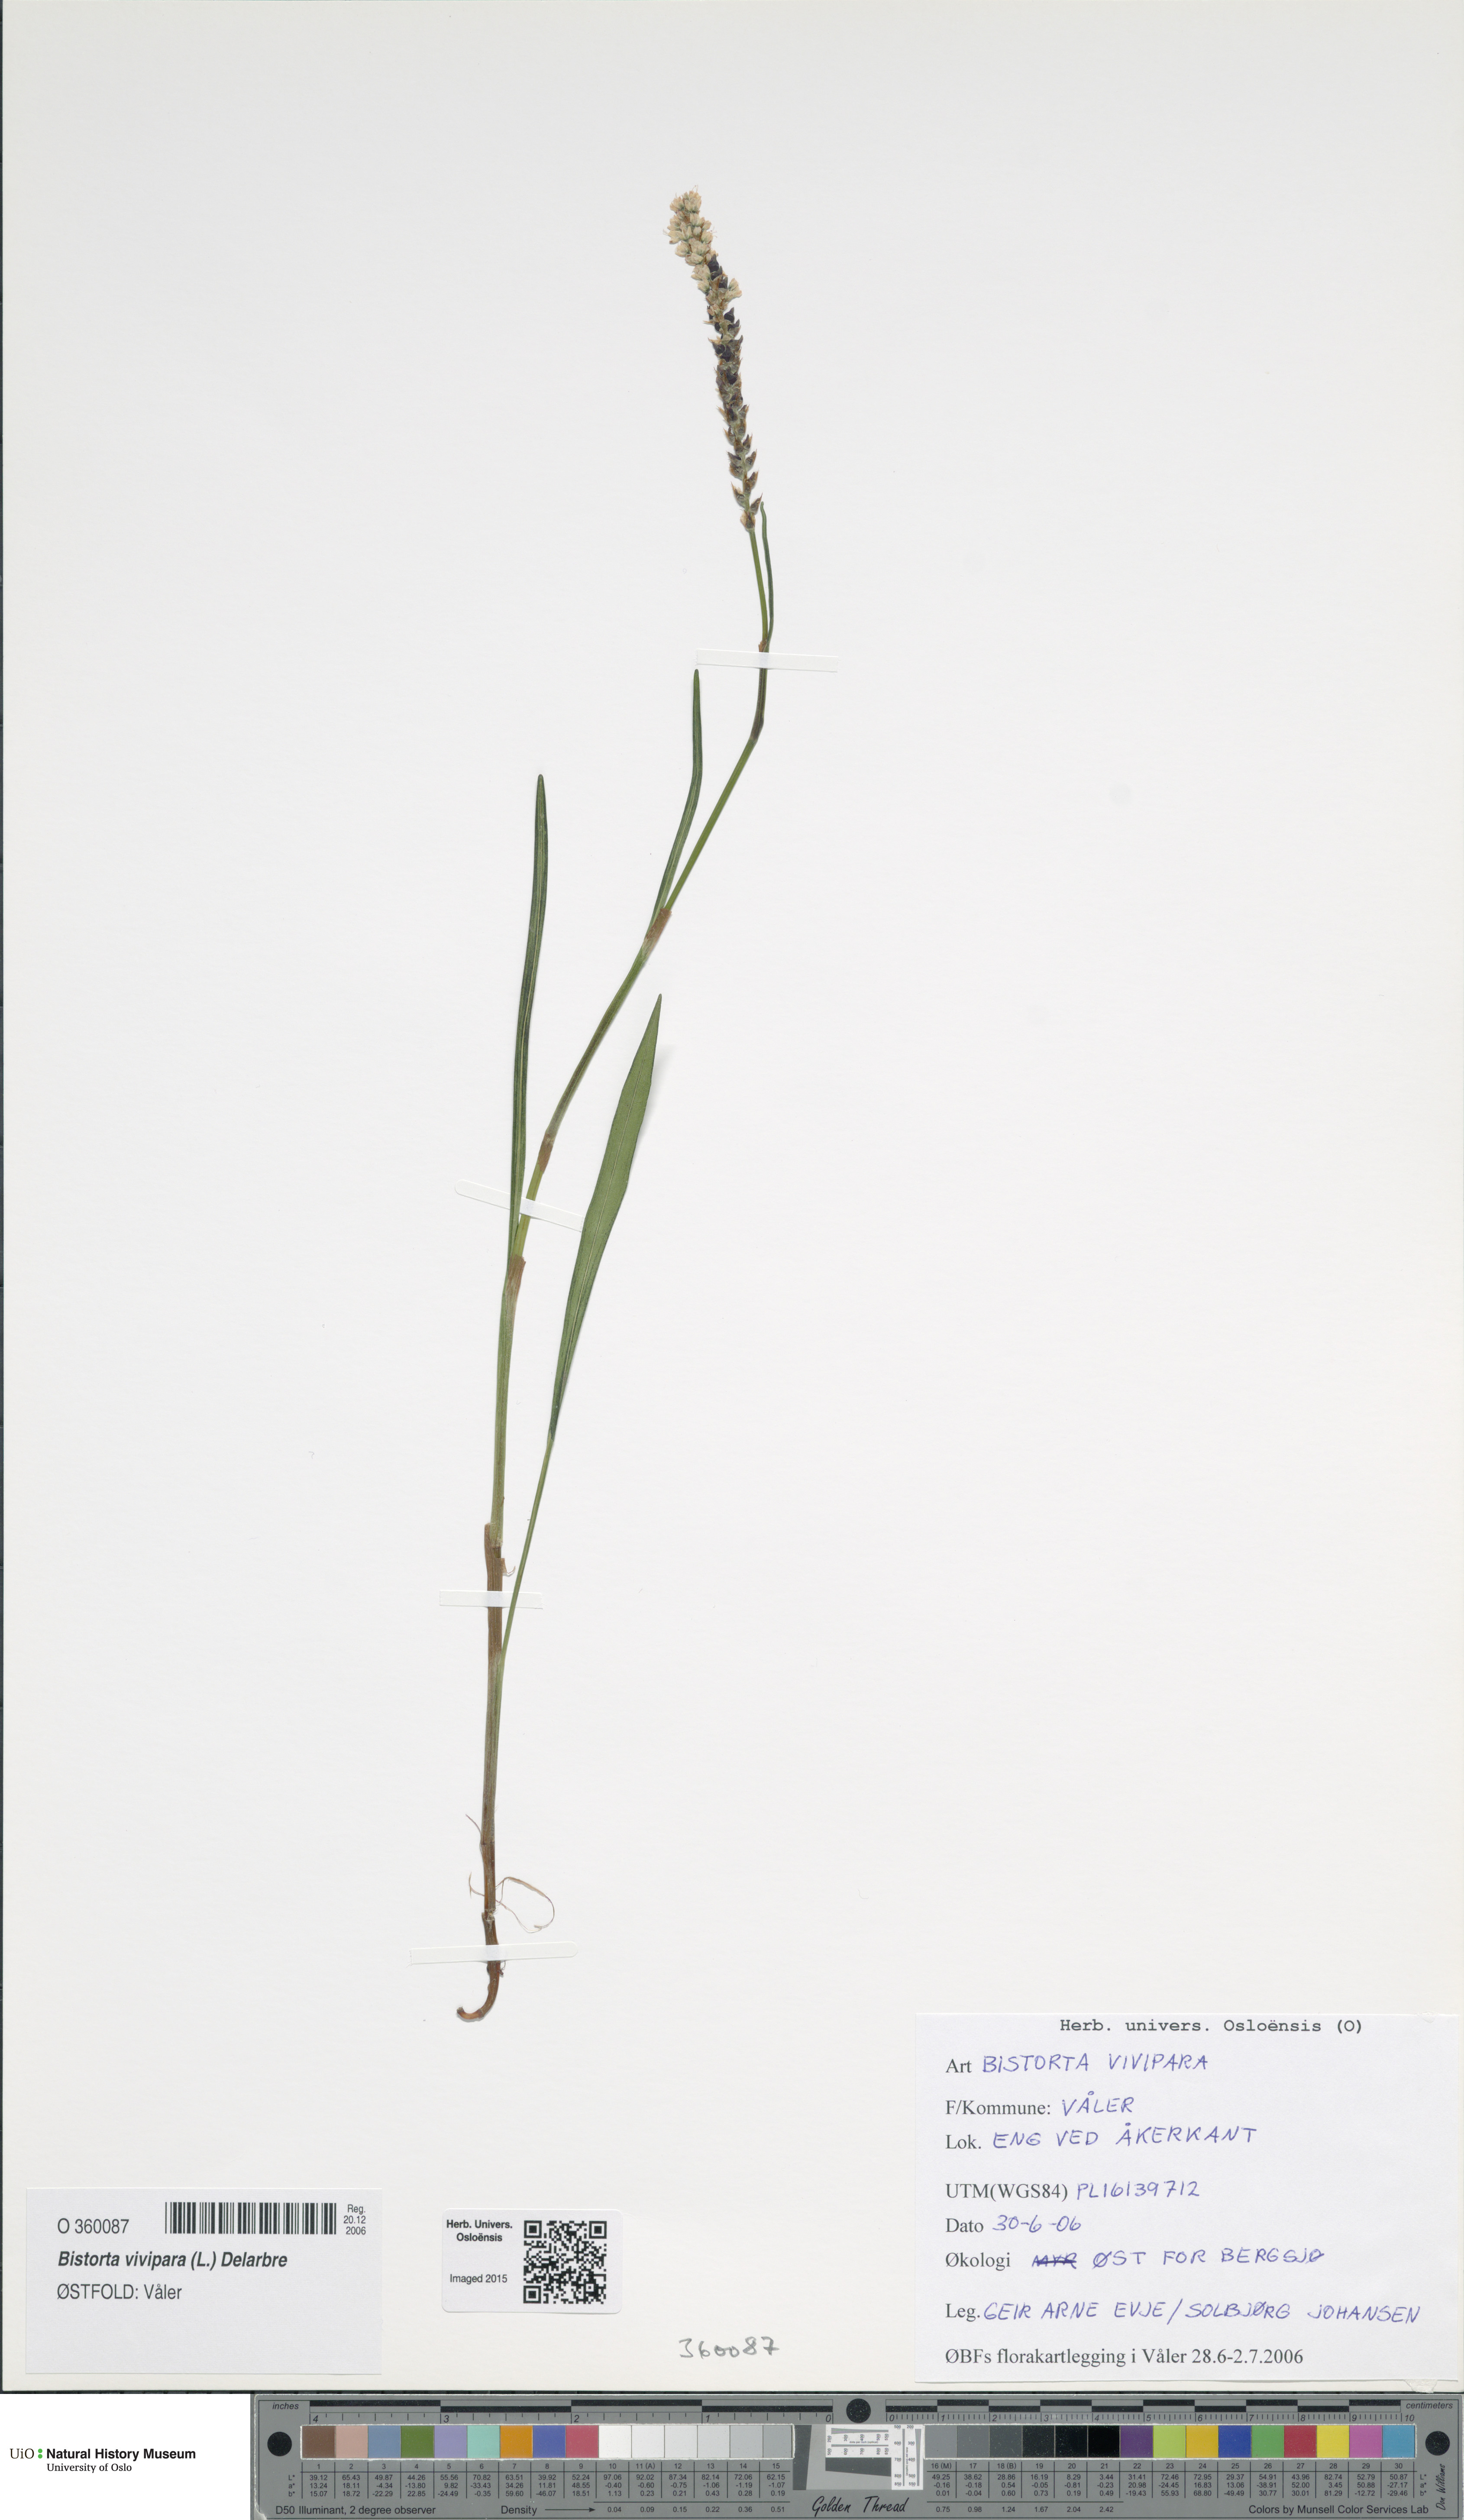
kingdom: Plantae
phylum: Tracheophyta
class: Magnoliopsida
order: Caryophyllales
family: Polygonaceae
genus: Bistorta
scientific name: Bistorta vivipara
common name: Alpine bistort
